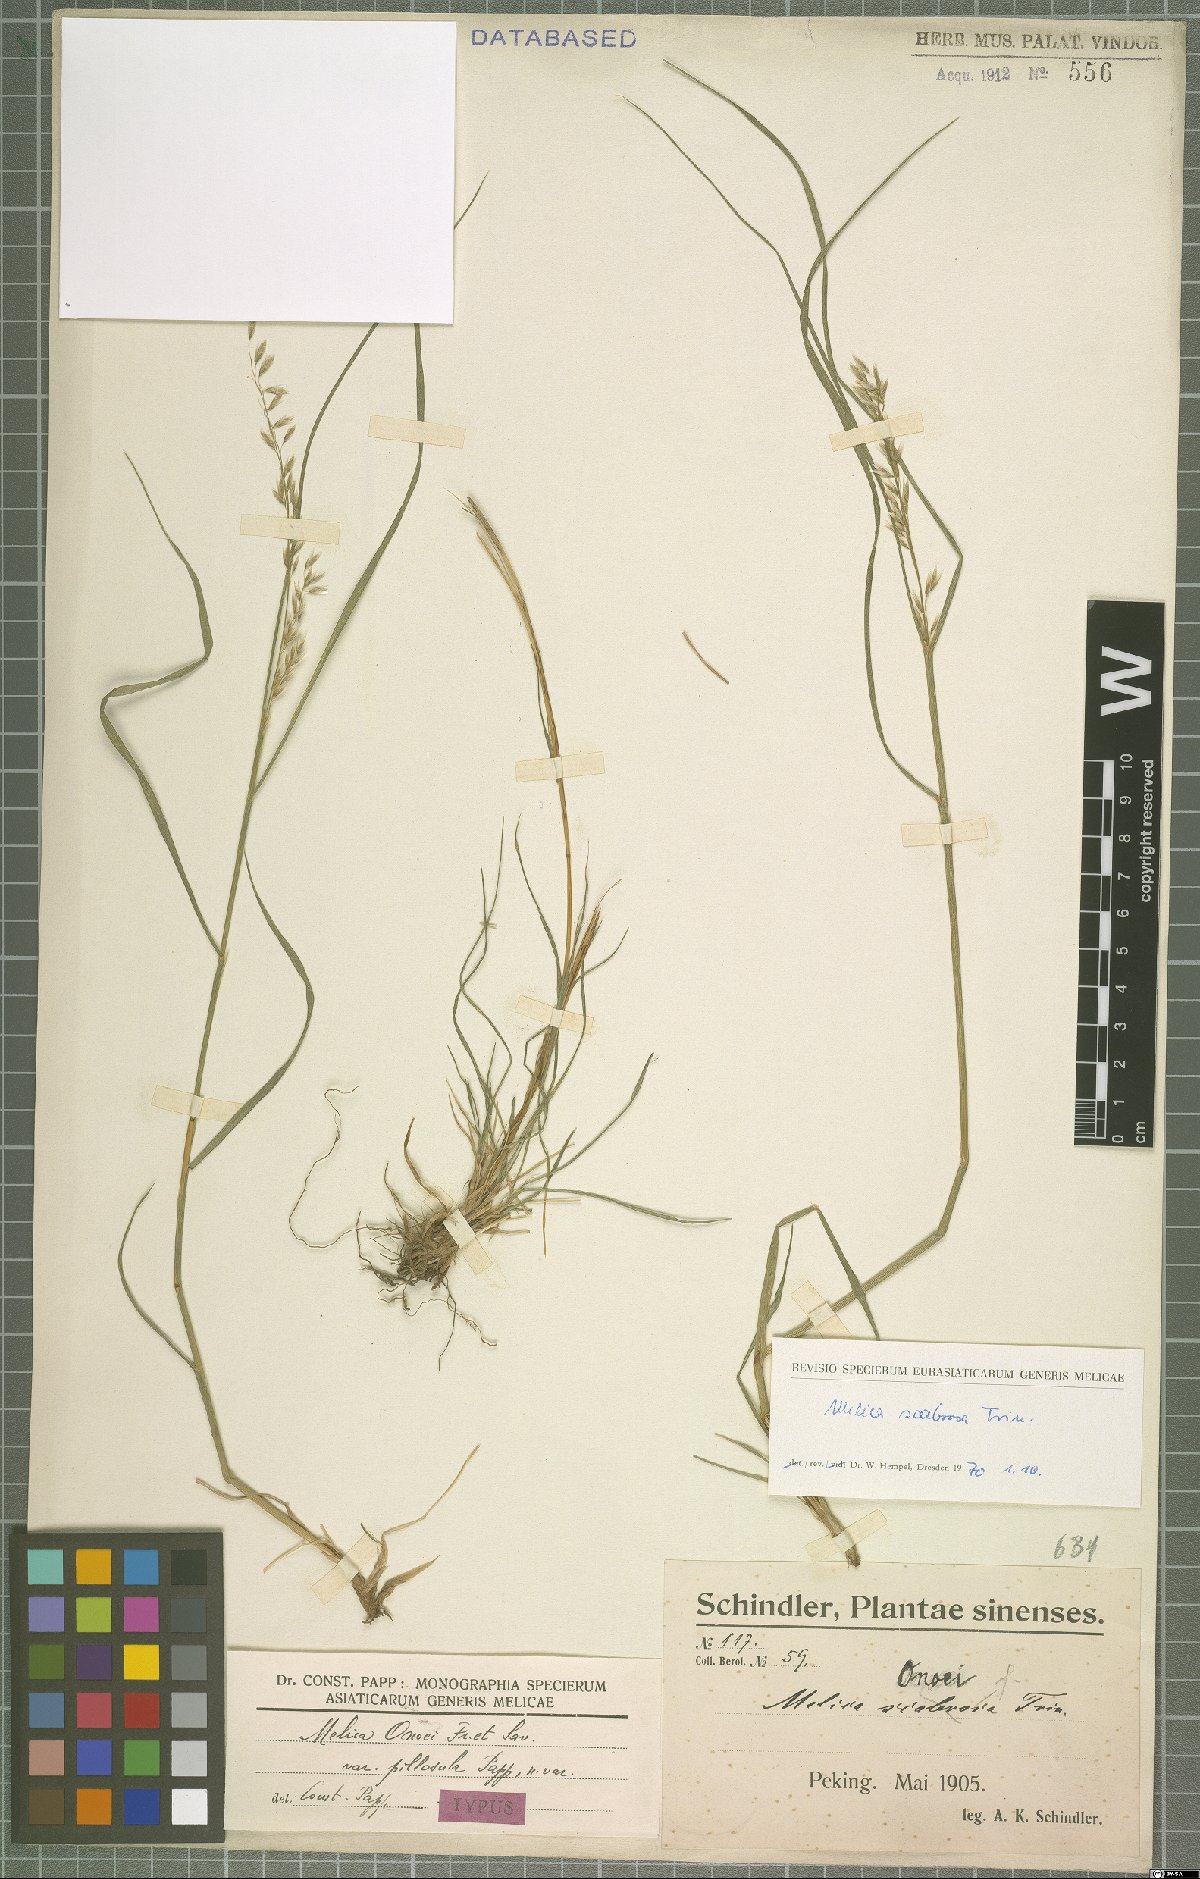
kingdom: Plantae
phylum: Tracheophyta
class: Liliopsida
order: Poales
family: Poaceae
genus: Melica
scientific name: Melica scabrosa
